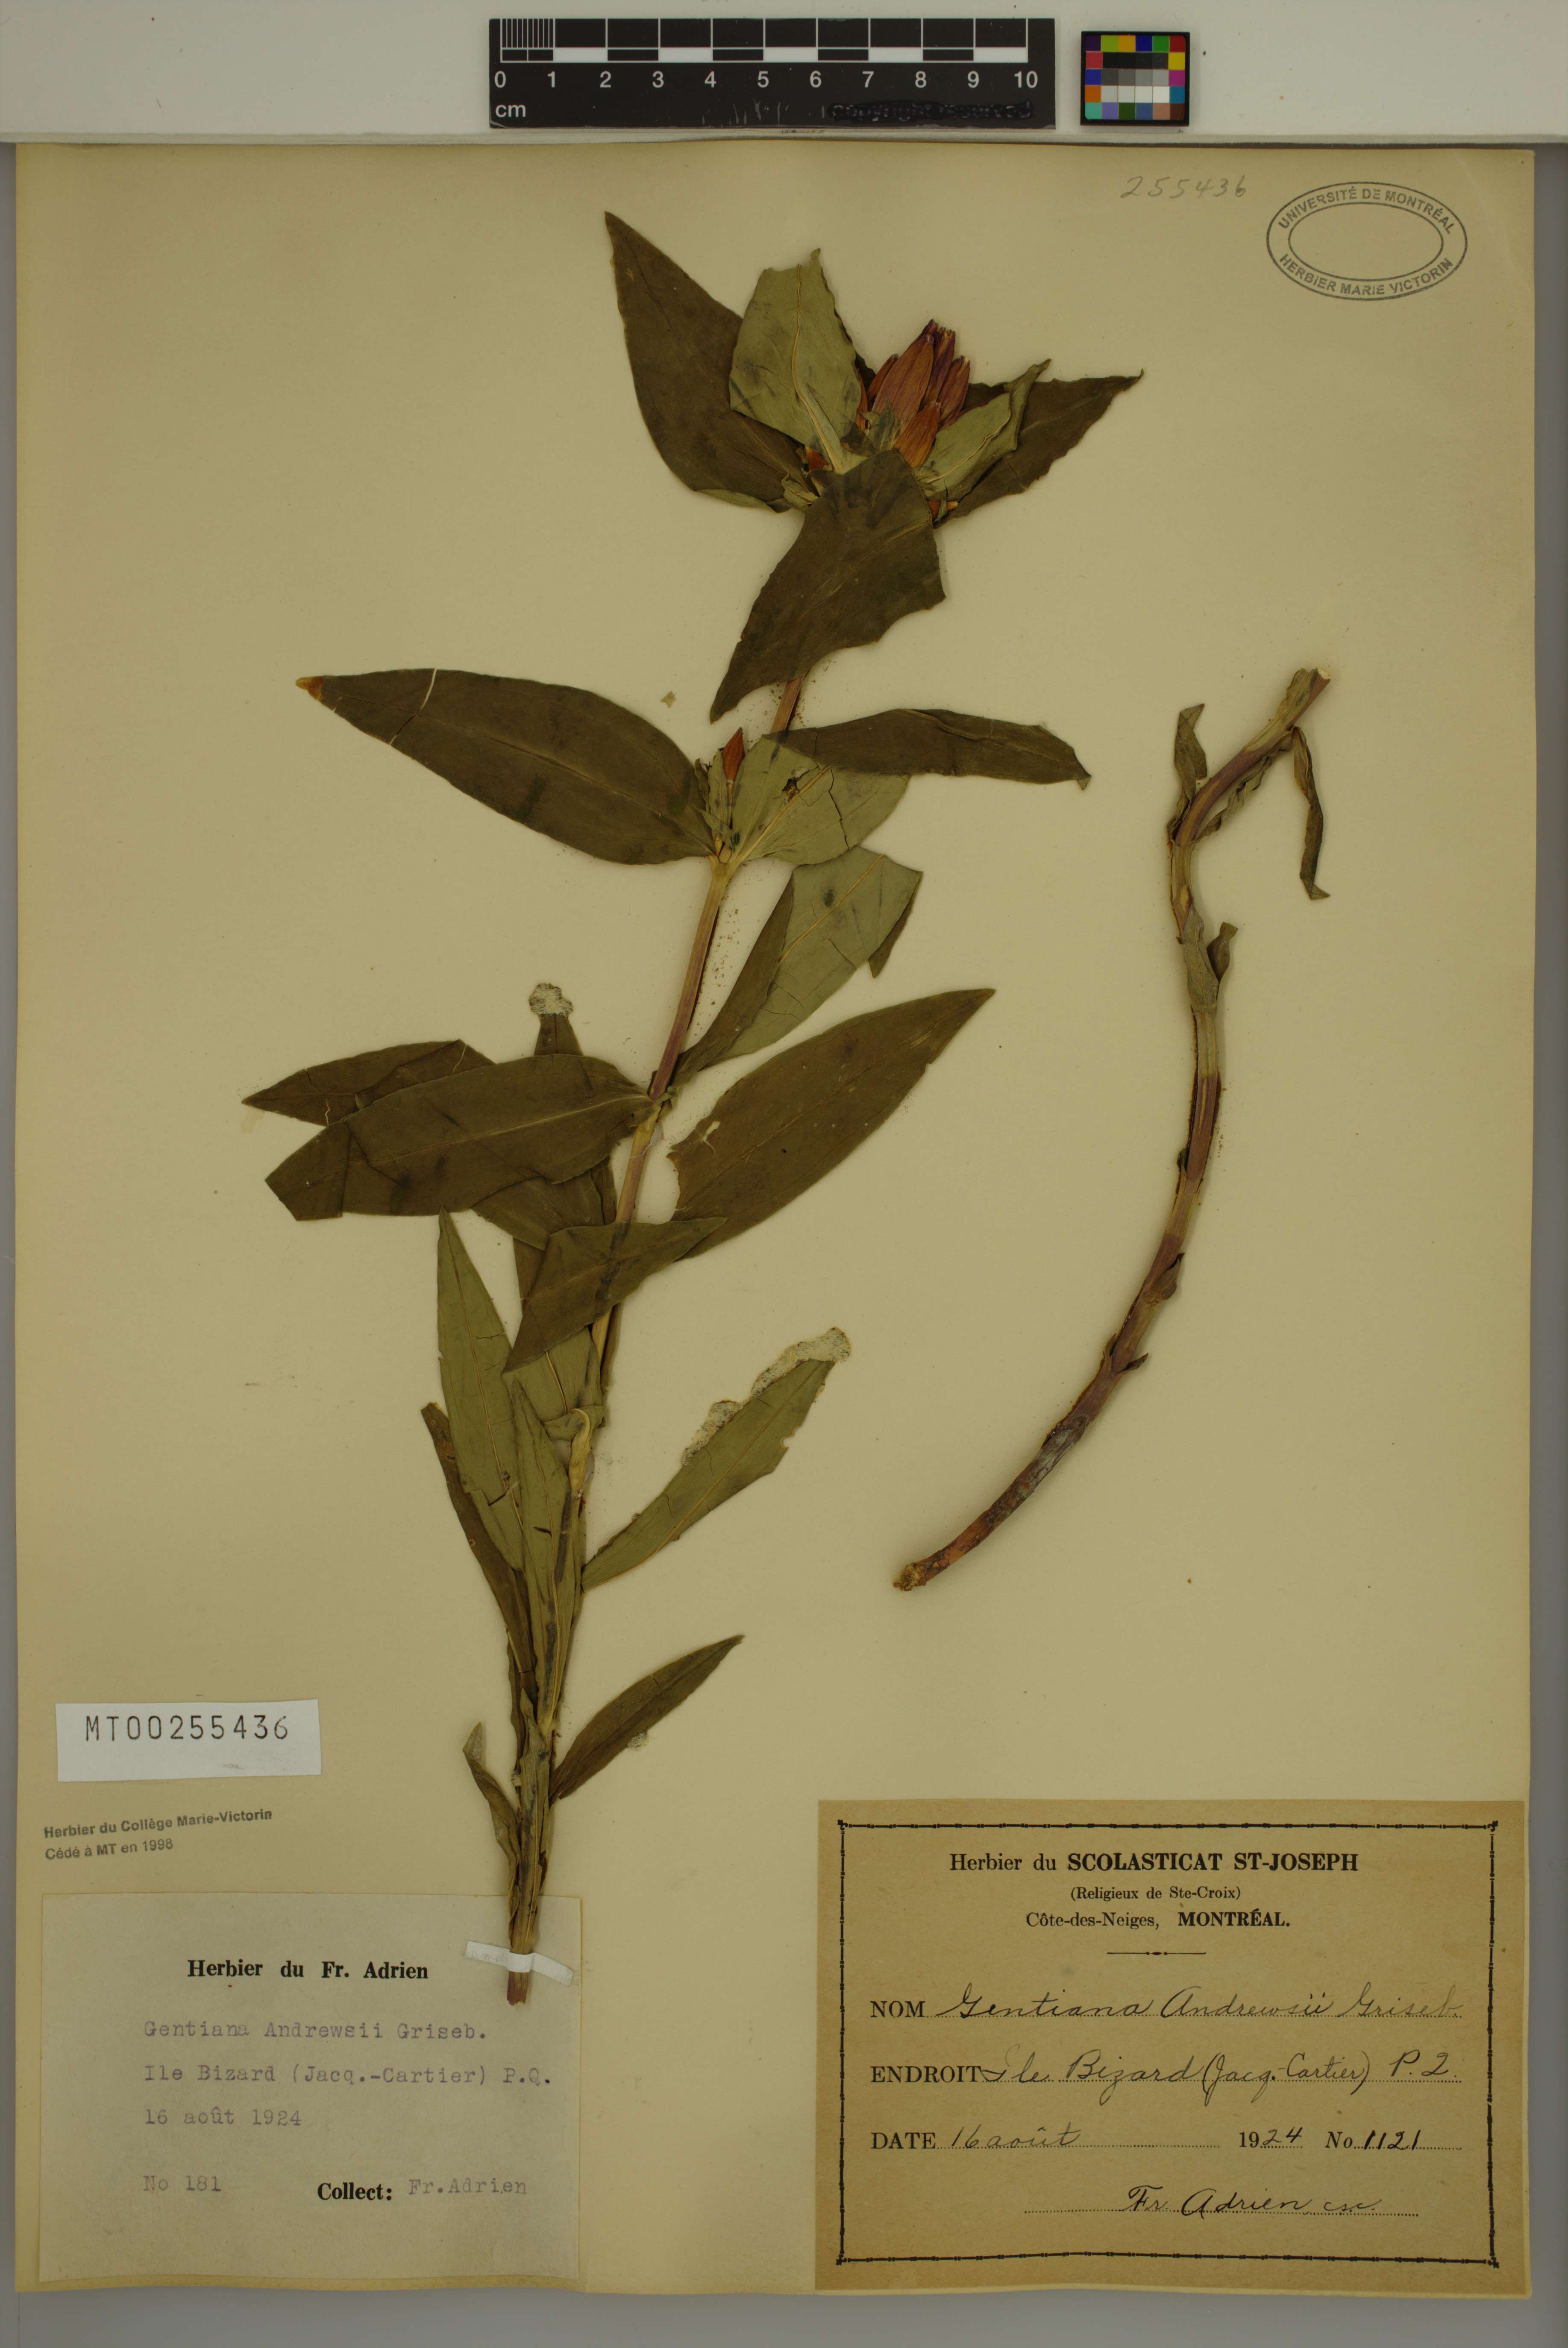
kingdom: Plantae
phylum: Tracheophyta
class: Magnoliopsida
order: Gentianales
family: Gentianaceae
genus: Gentiana
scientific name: Gentiana andrewsii
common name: Bottle gentian
